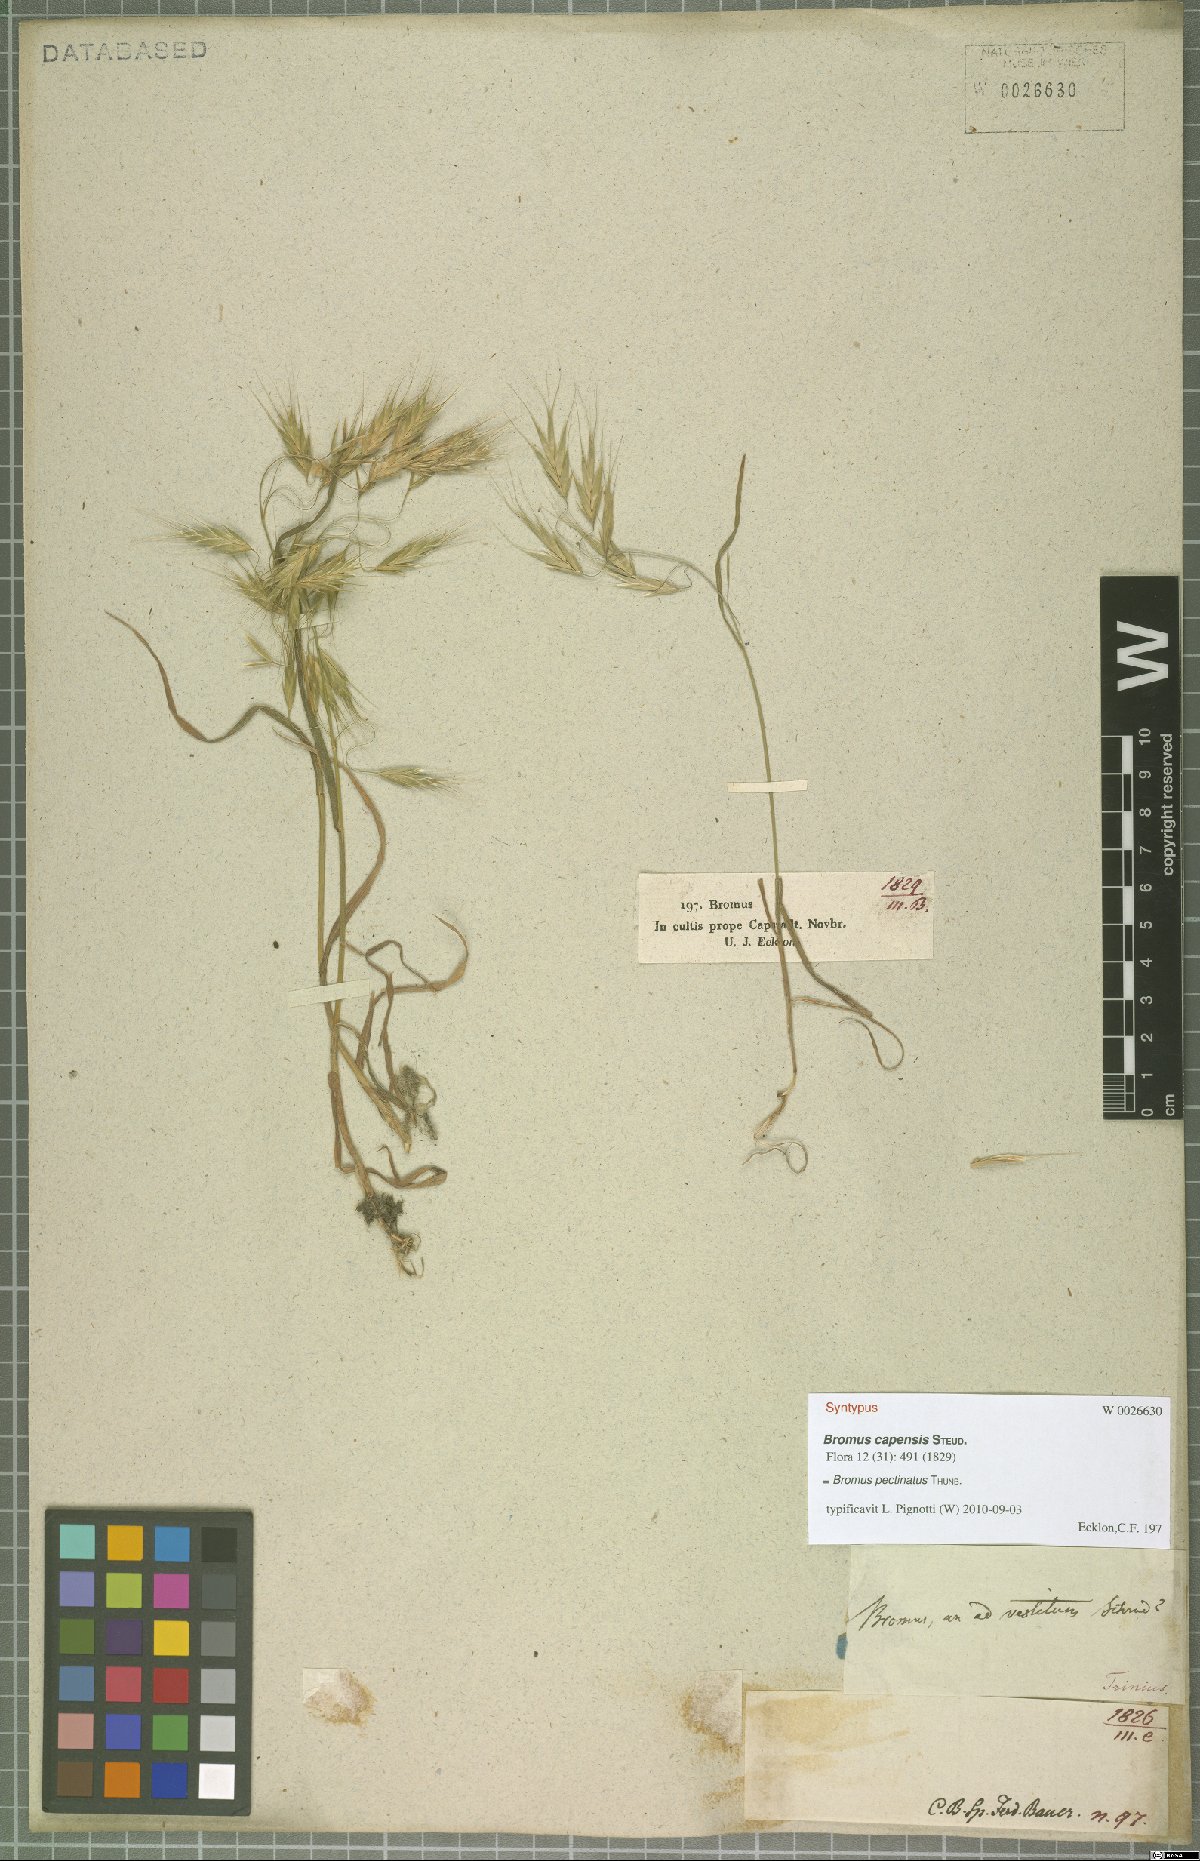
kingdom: Plantae
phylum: Tracheophyta
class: Liliopsida
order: Poales
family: Poaceae
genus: Bromus
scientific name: Bromus pectinatus
